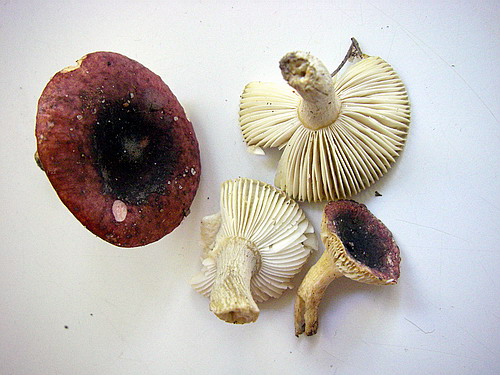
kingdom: Fungi
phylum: Basidiomycota
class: Agaricomycetes
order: Russulales
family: Russulaceae
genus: Russula
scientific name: Russula alnetorum
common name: elle-skørhat
